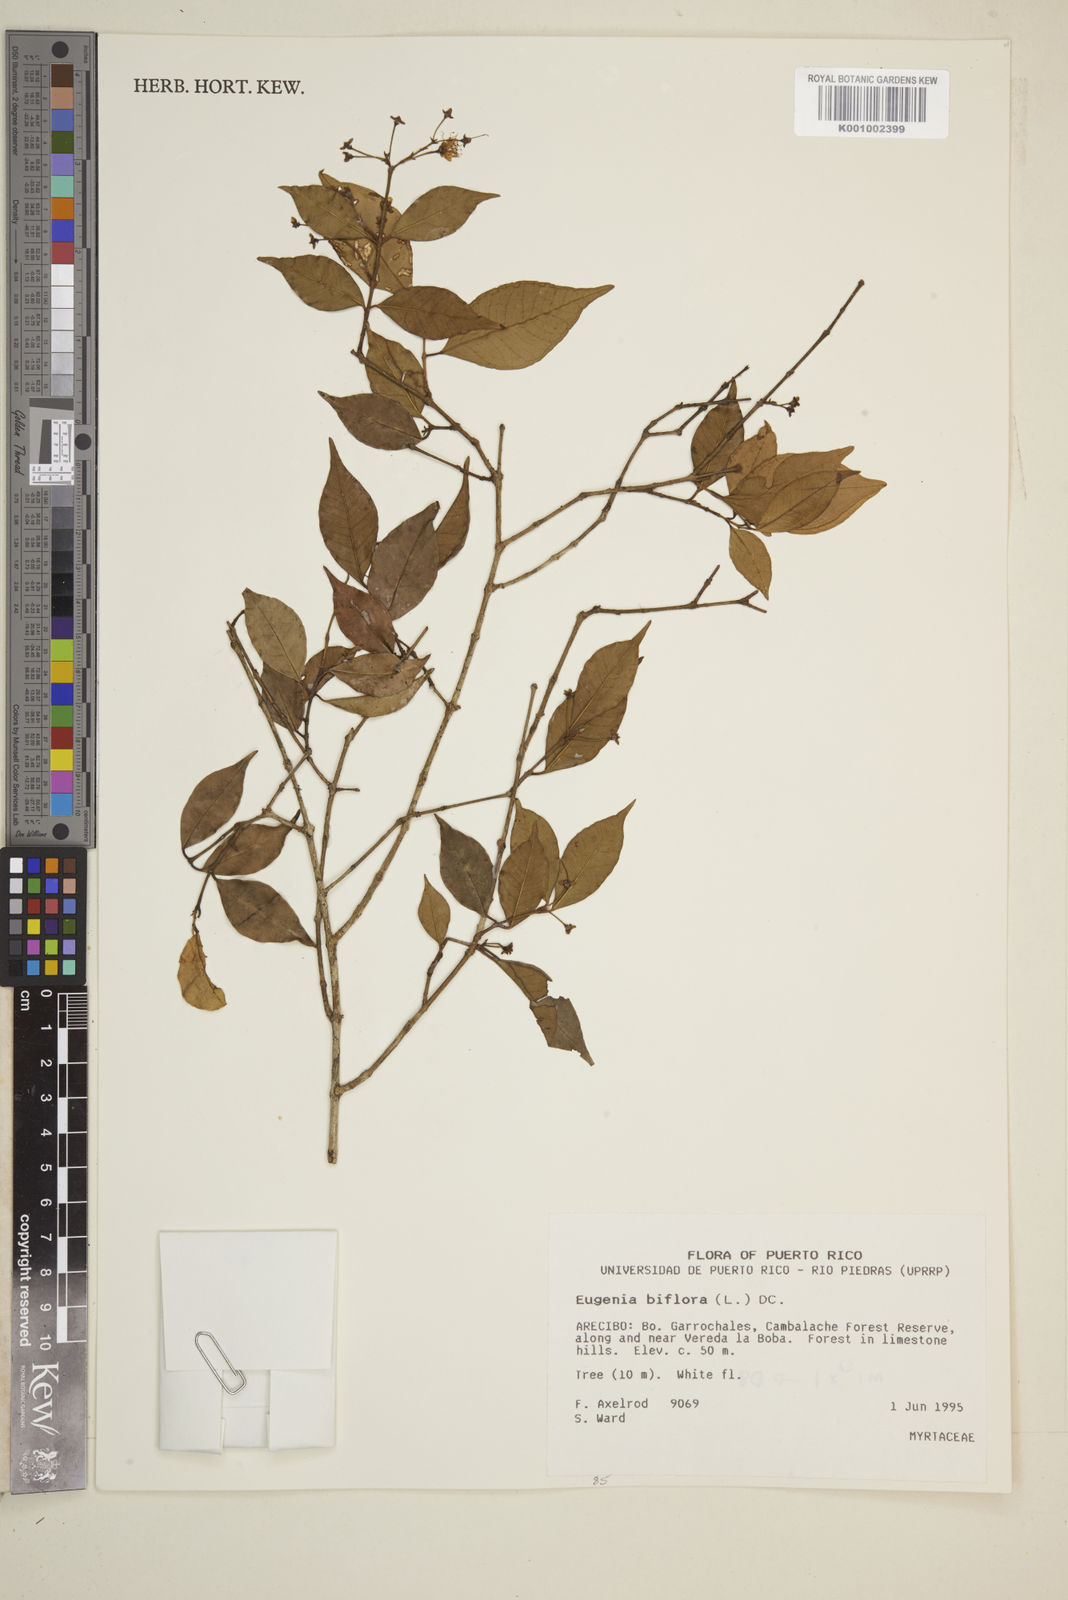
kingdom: Plantae
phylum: Tracheophyta
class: Magnoliopsida
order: Myrtales
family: Myrtaceae
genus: Eugenia
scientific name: Eugenia biflora
